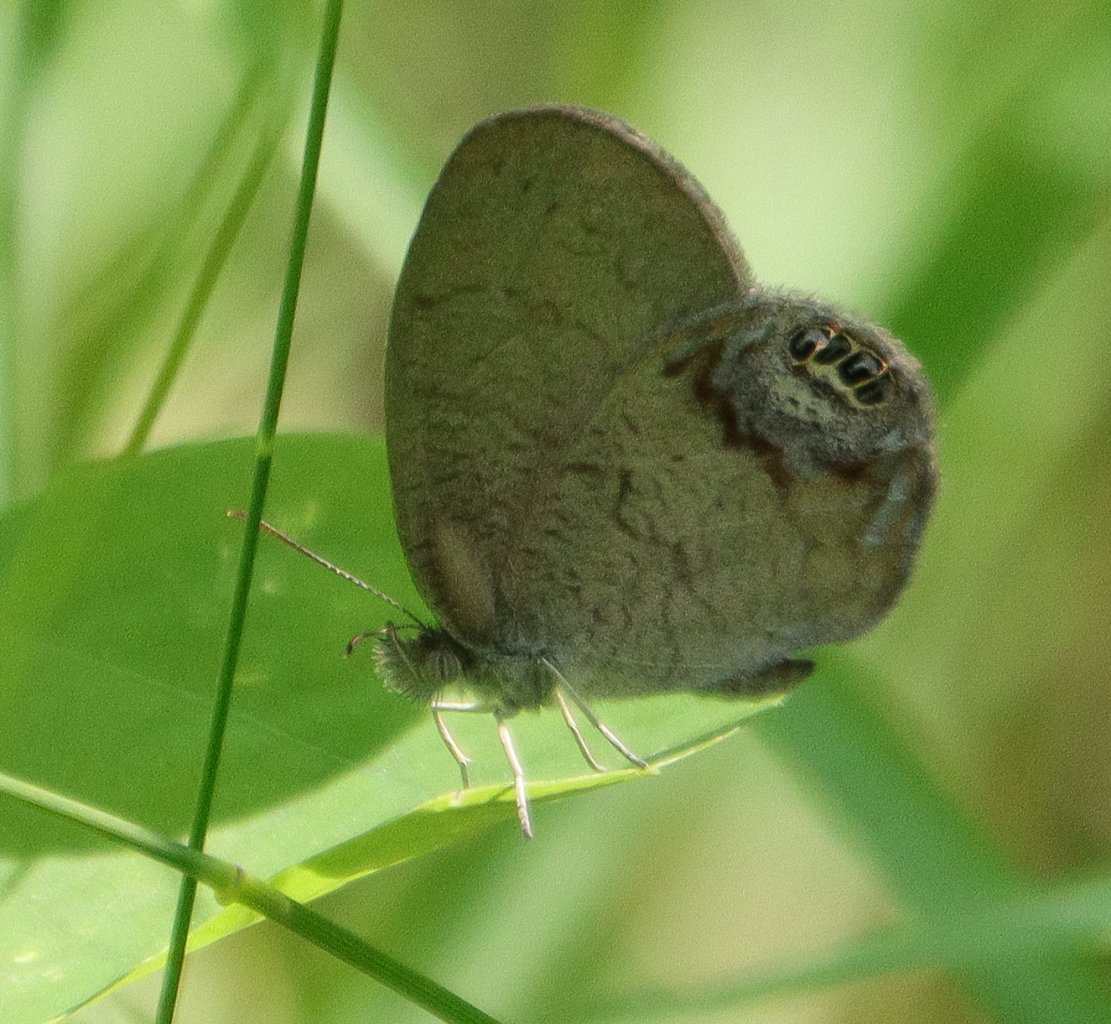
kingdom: Animalia
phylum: Arthropoda
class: Insecta
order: Lepidoptera
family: Nymphalidae
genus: Euptychia
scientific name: Euptychia cornelius
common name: Gemmed Satyr
